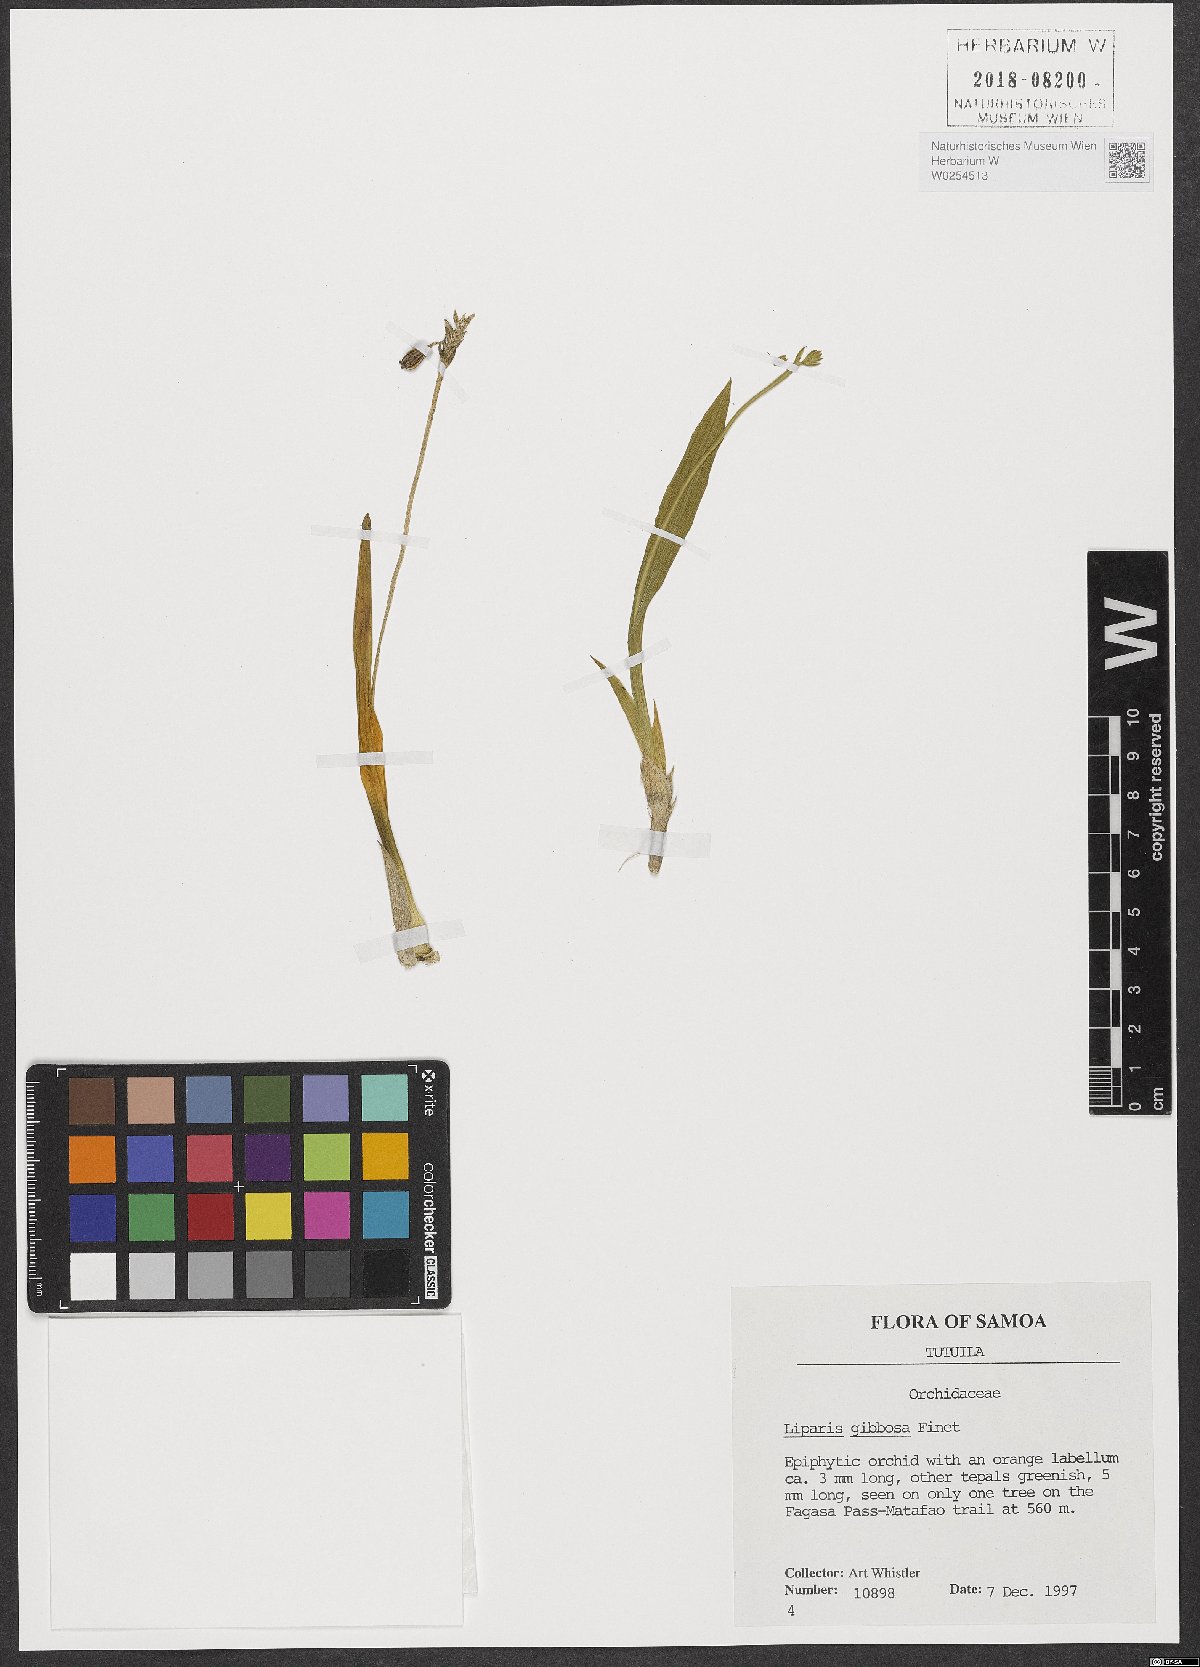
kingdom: Plantae
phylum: Tracheophyta
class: Liliopsida
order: Asparagales
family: Orchidaceae
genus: Stichorkis
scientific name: Stichorkis gibbosa
